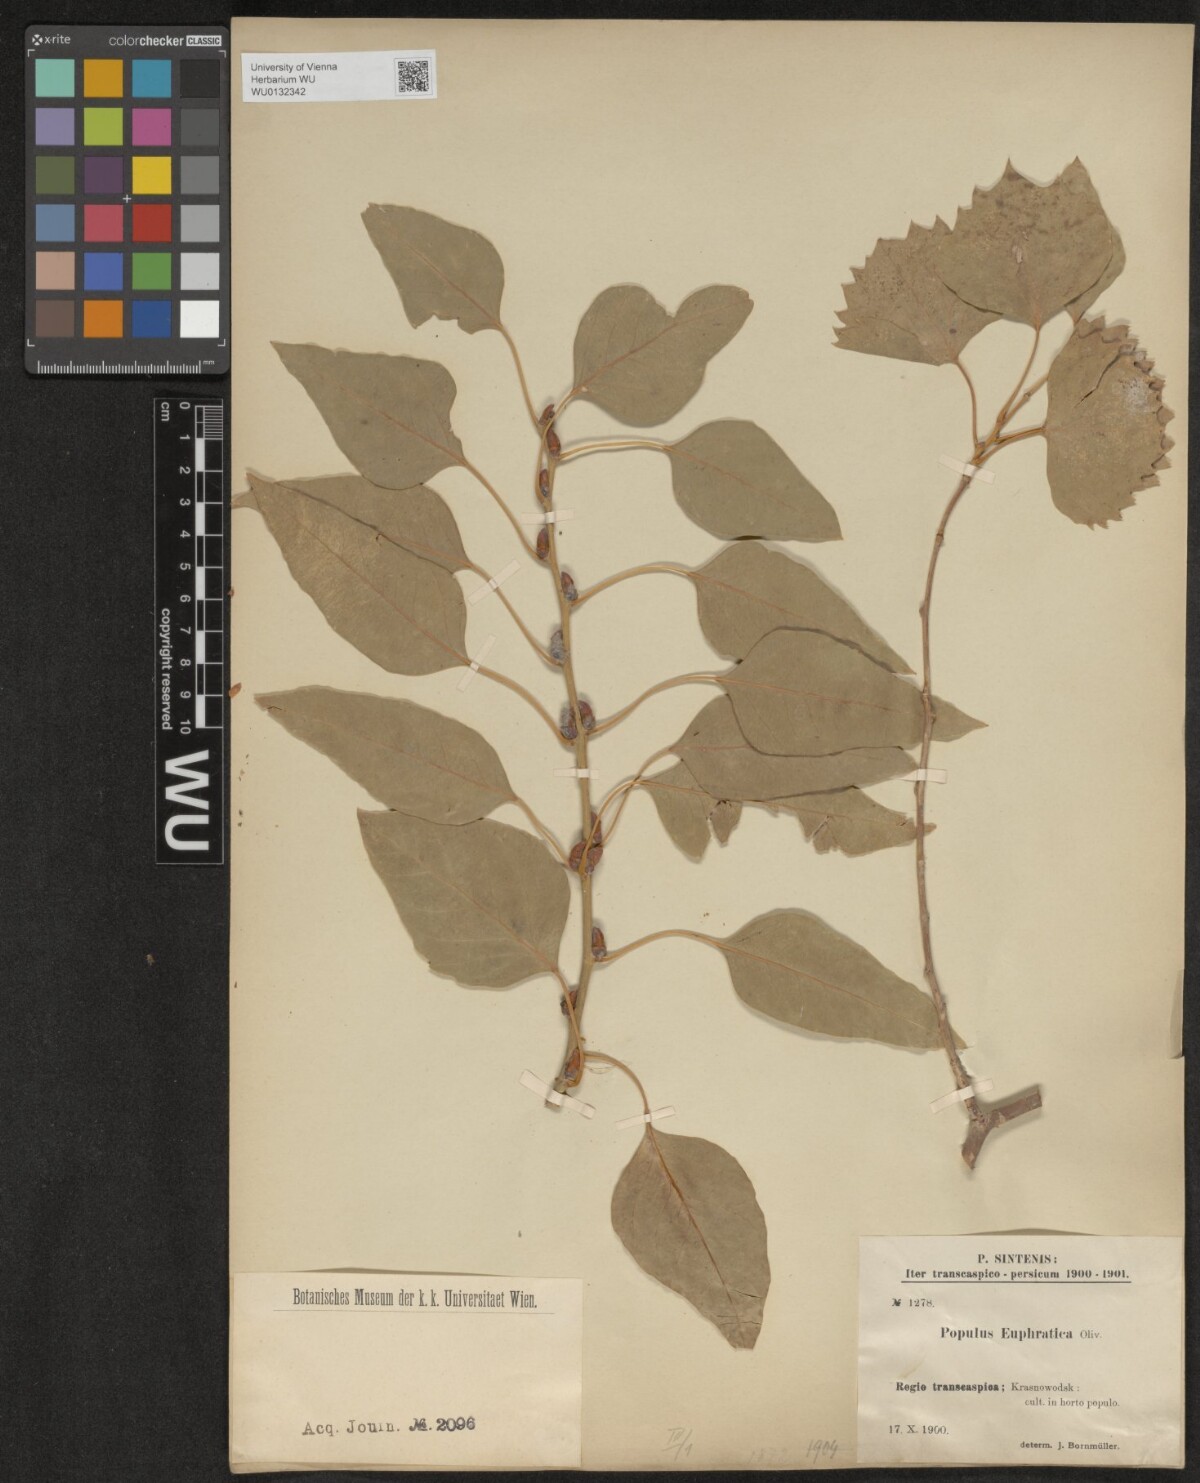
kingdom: Plantae
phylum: Tracheophyta
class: Magnoliopsida
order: Malpighiales
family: Salicaceae
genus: Populus
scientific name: Populus euphratica
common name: Euphrates poplar
